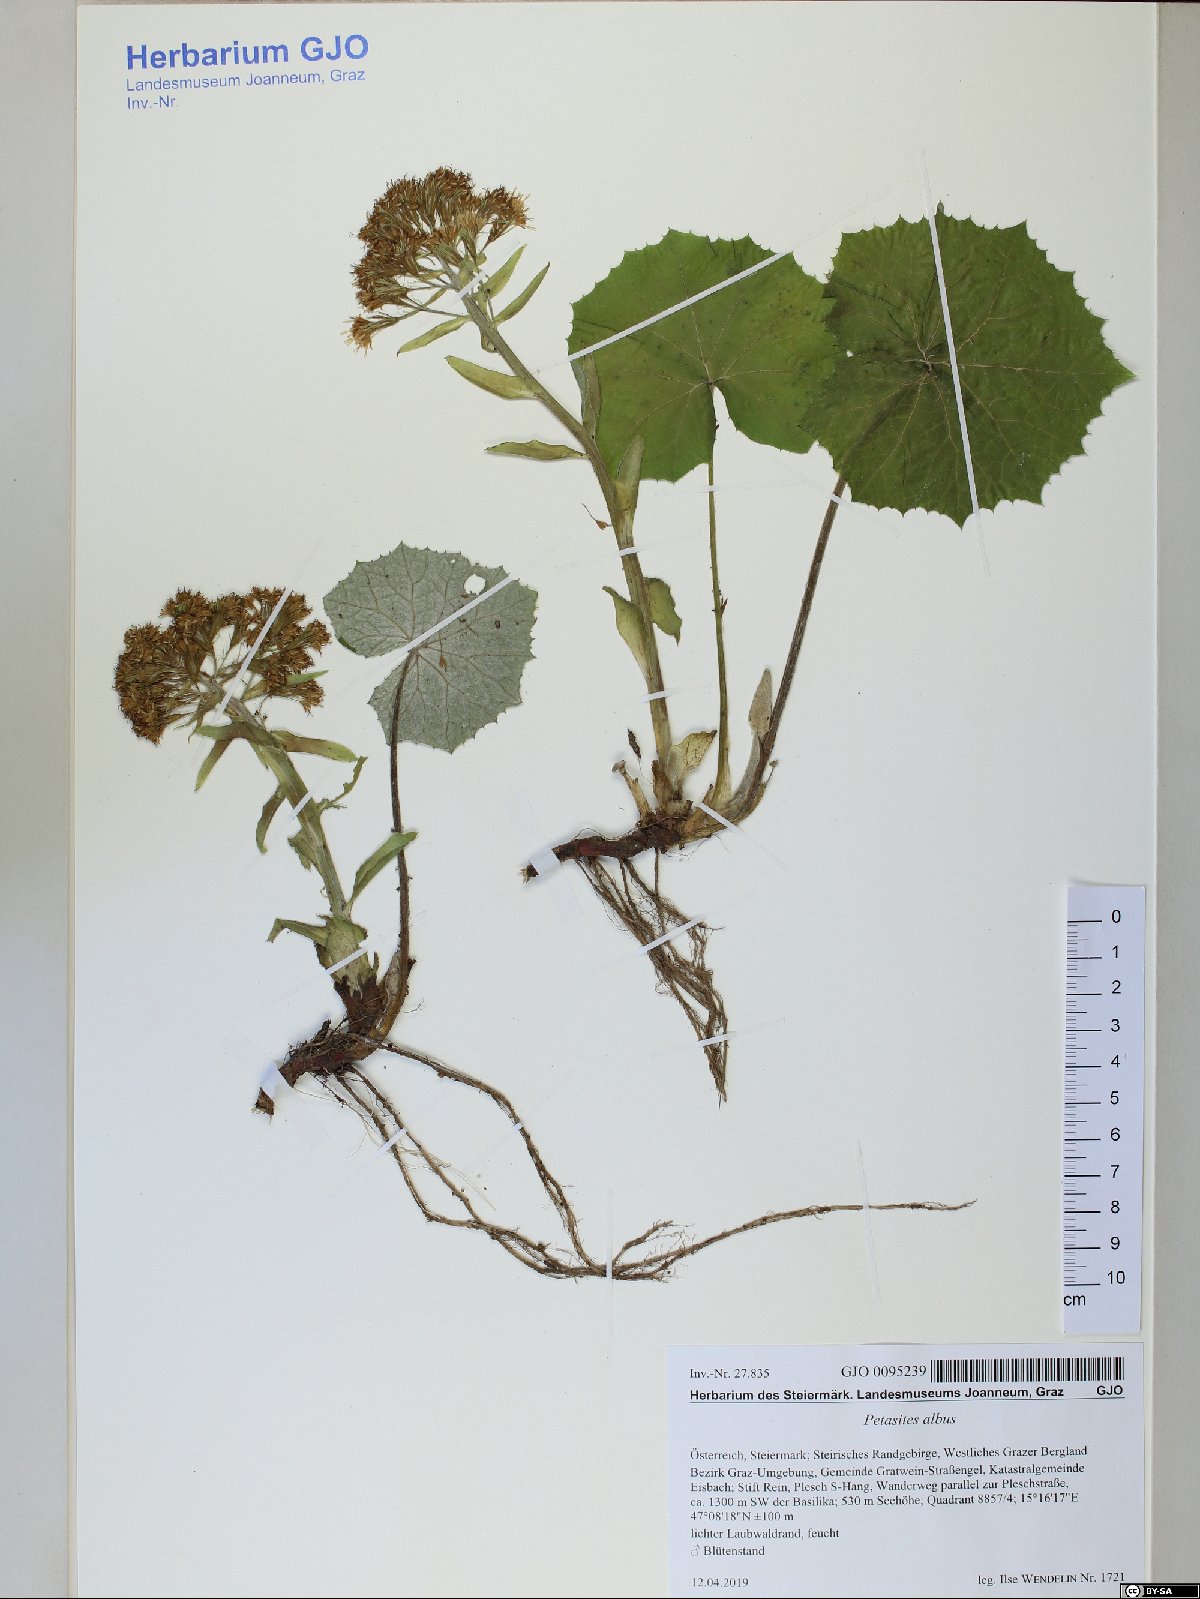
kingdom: Plantae
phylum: Tracheophyta
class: Magnoliopsida
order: Asterales
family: Asteraceae
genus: Petasites
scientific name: Petasites albus
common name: White butterbur
